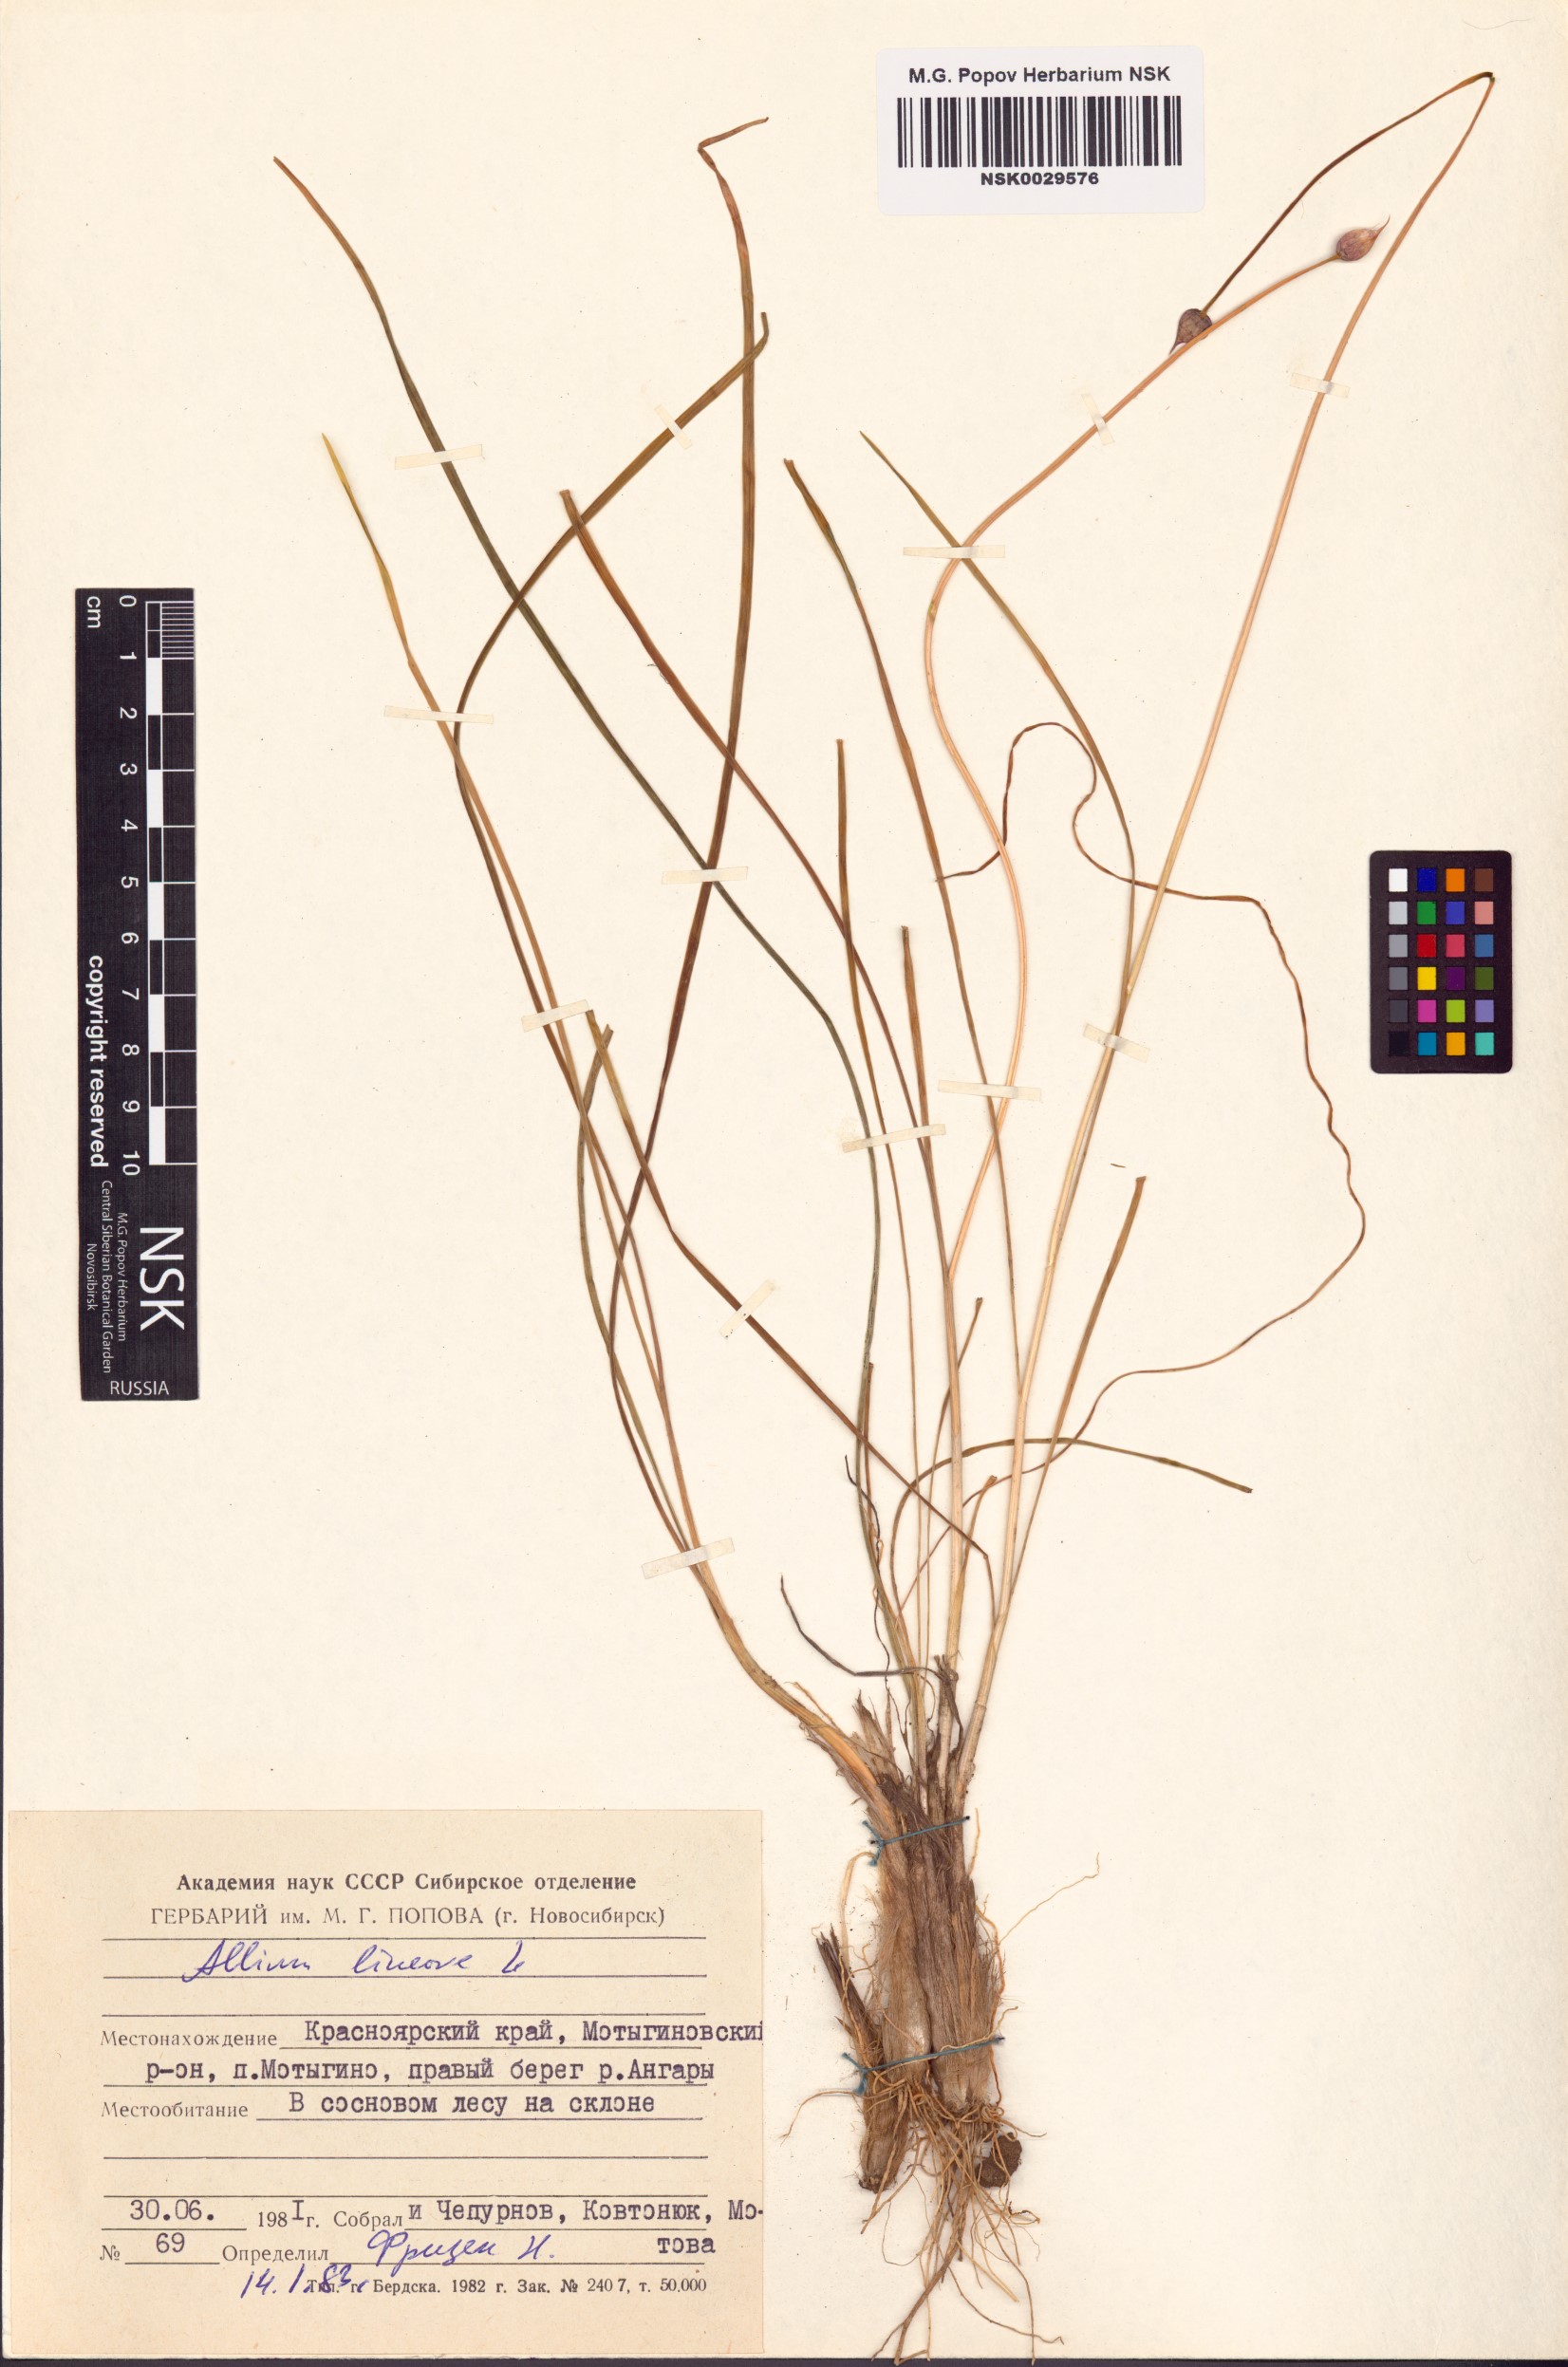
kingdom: Plantae
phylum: Tracheophyta
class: Liliopsida
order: Asparagales
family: Amaryllidaceae
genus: Allium
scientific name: Allium lineare
